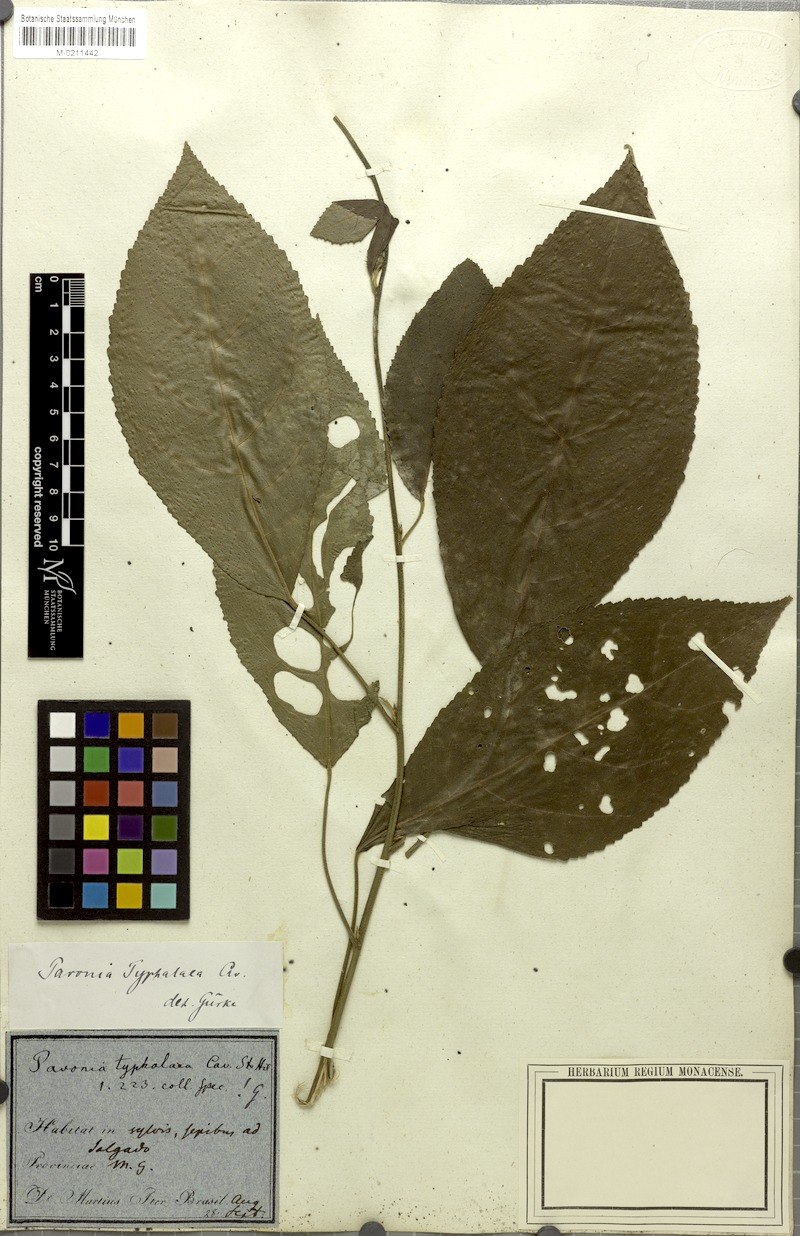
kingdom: Plantae
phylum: Tracheophyta
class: Magnoliopsida
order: Malvales
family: Malvaceae
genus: Pavonia
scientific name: Pavonia fruticosa
